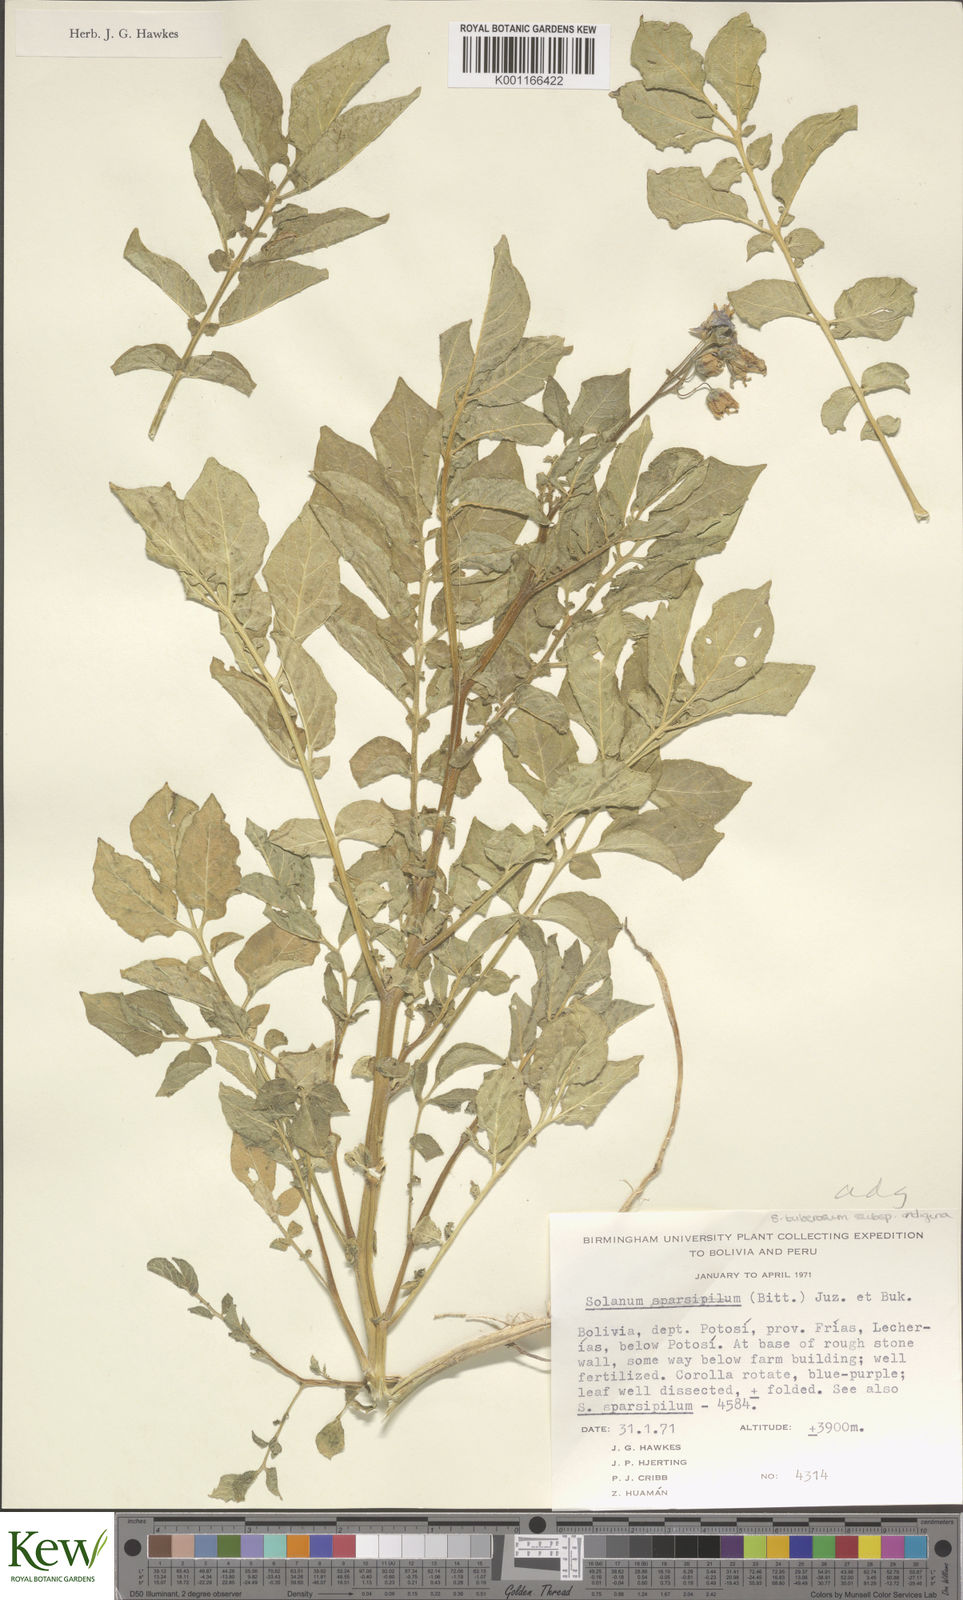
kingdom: Plantae
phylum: Tracheophyta
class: Magnoliopsida
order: Solanales
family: Solanaceae
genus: Solanum
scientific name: Solanum tuberosum
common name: Potato
